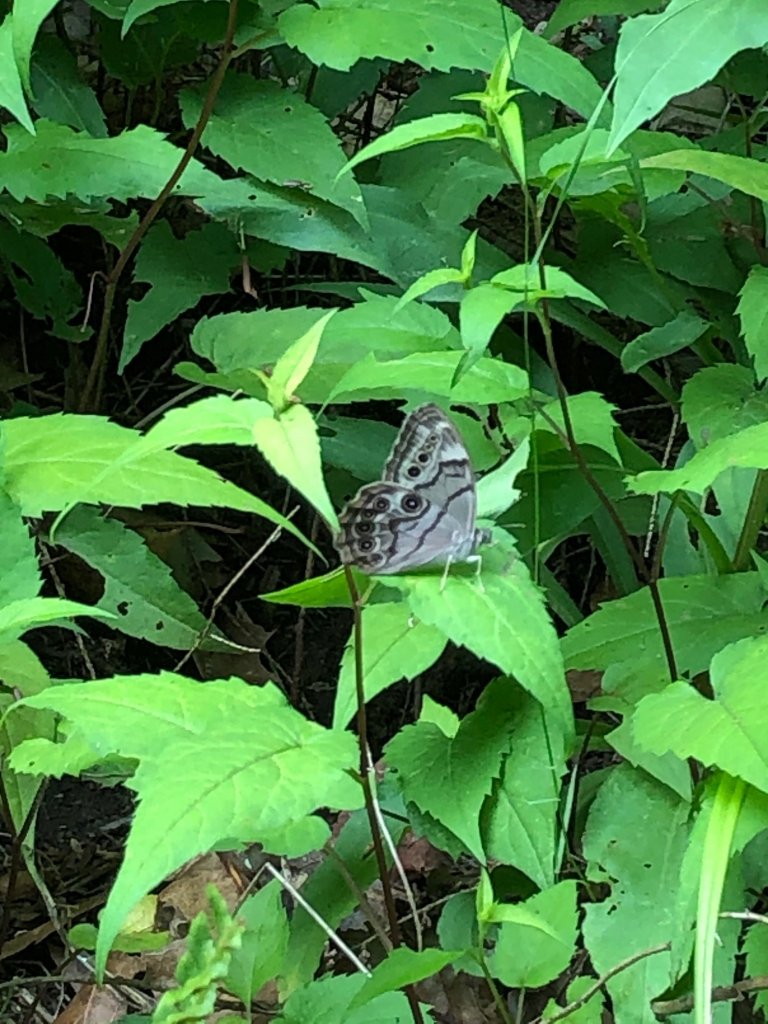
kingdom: Animalia
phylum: Arthropoda
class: Insecta
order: Lepidoptera
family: Nymphalidae
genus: Lethe
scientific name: Lethe anthedon
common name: Northern Pearly-Eye
